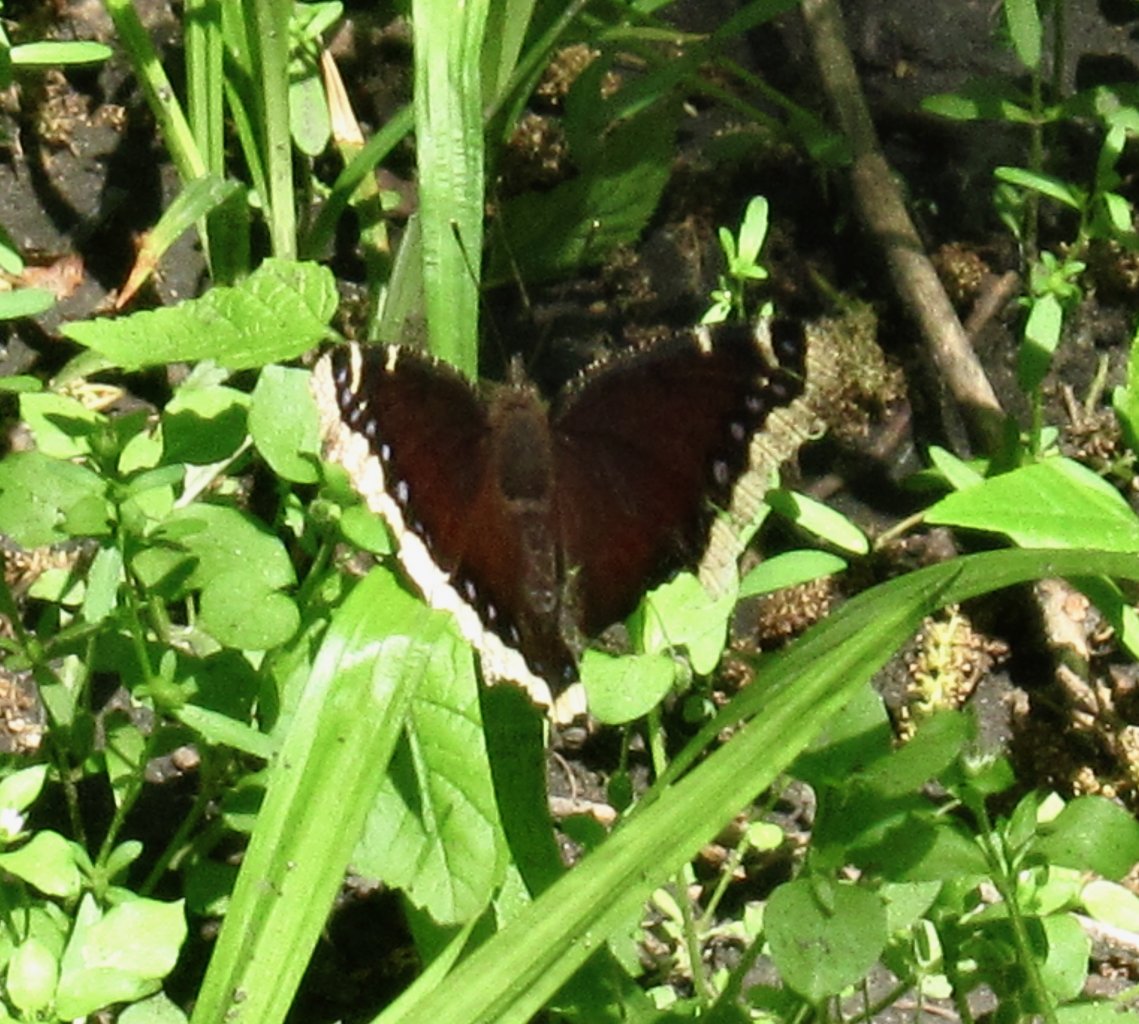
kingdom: Animalia
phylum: Arthropoda
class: Insecta
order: Lepidoptera
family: Nymphalidae
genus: Nymphalis
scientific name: Nymphalis antiopa
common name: Mourning Cloak
